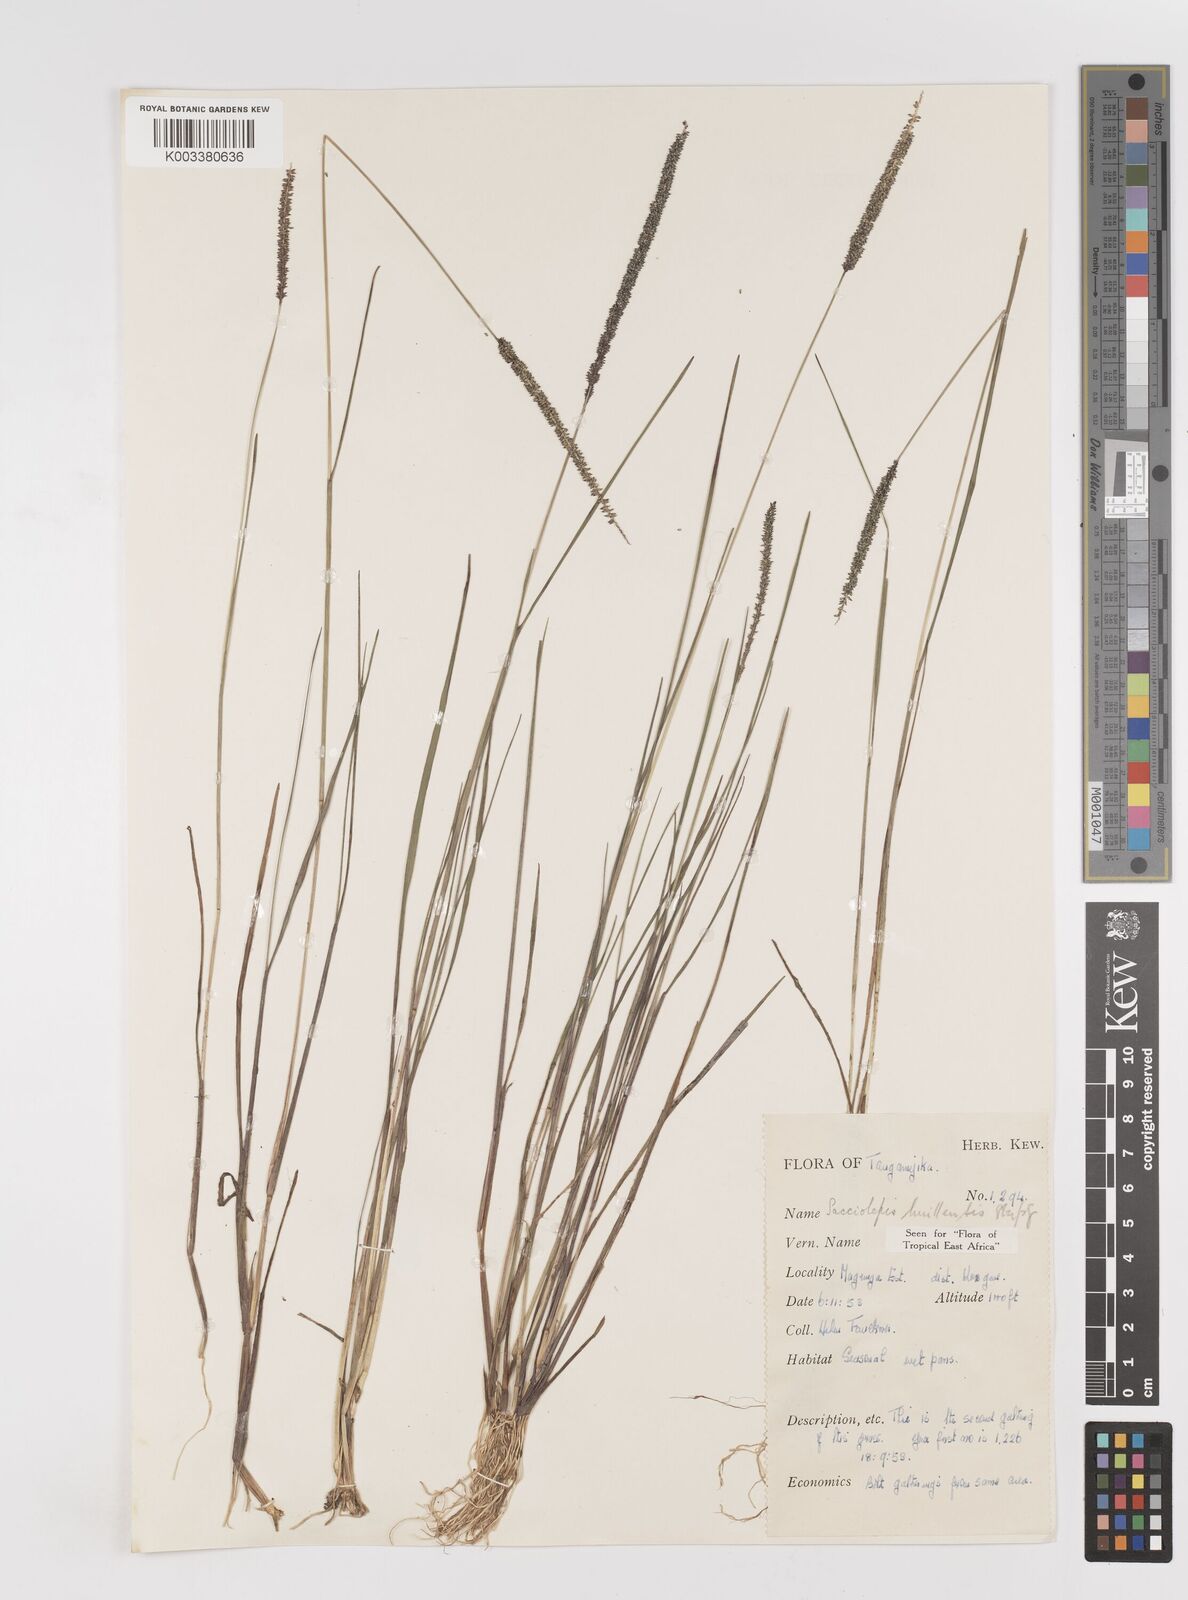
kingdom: Plantae
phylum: Tracheophyta
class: Liliopsida
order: Poales
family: Poaceae
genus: Sacciolepis
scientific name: Sacciolepis myosuroides
